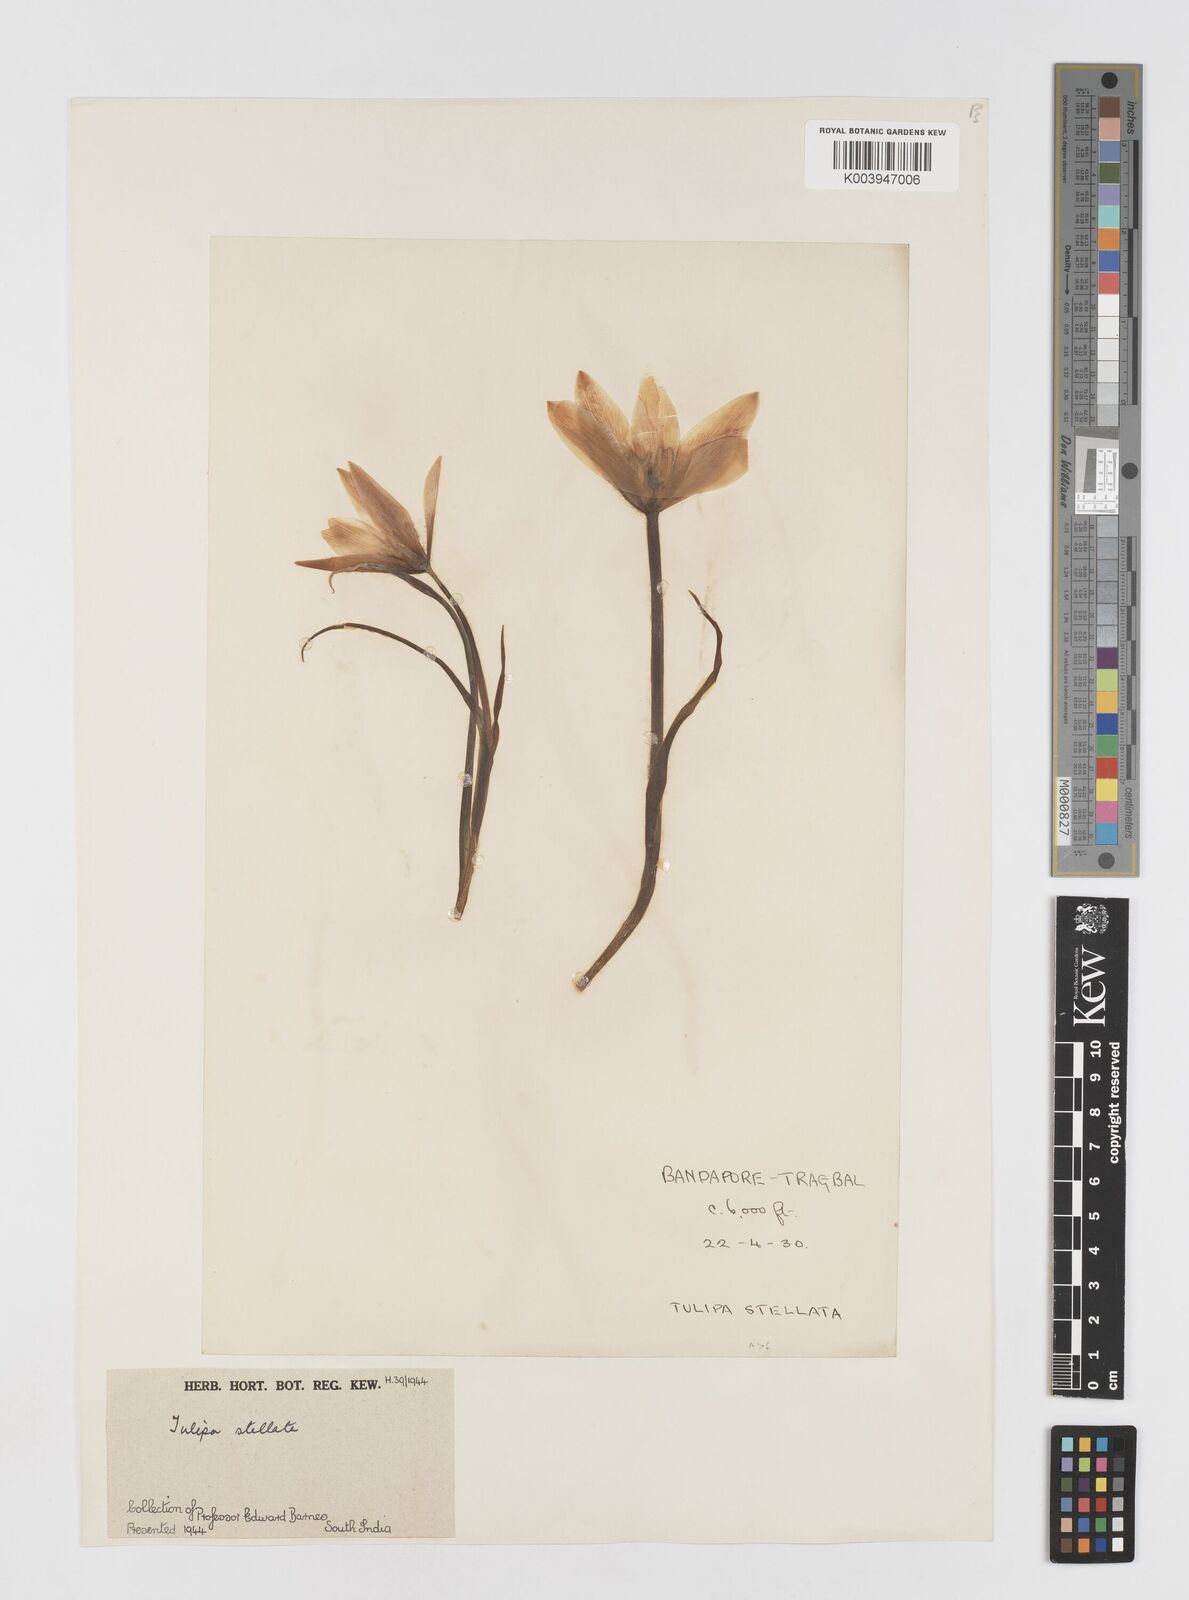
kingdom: Plantae
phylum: Tracheophyta
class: Liliopsida
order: Liliales
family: Liliaceae
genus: Tulipa
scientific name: Tulipa clusiana
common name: Lady tulip
